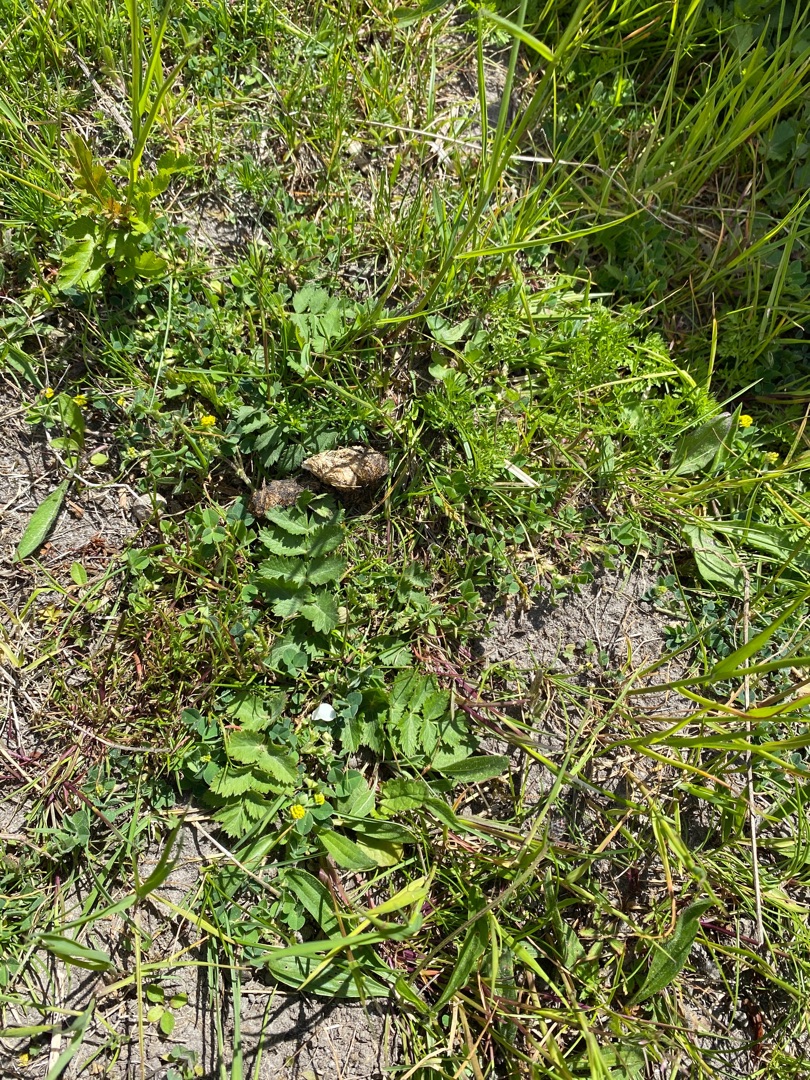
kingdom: Plantae
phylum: Tracheophyta
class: Magnoliopsida
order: Apiales
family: Apiaceae
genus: Pimpinella
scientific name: Pimpinella saxifraga
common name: Almindelig pimpinelle
